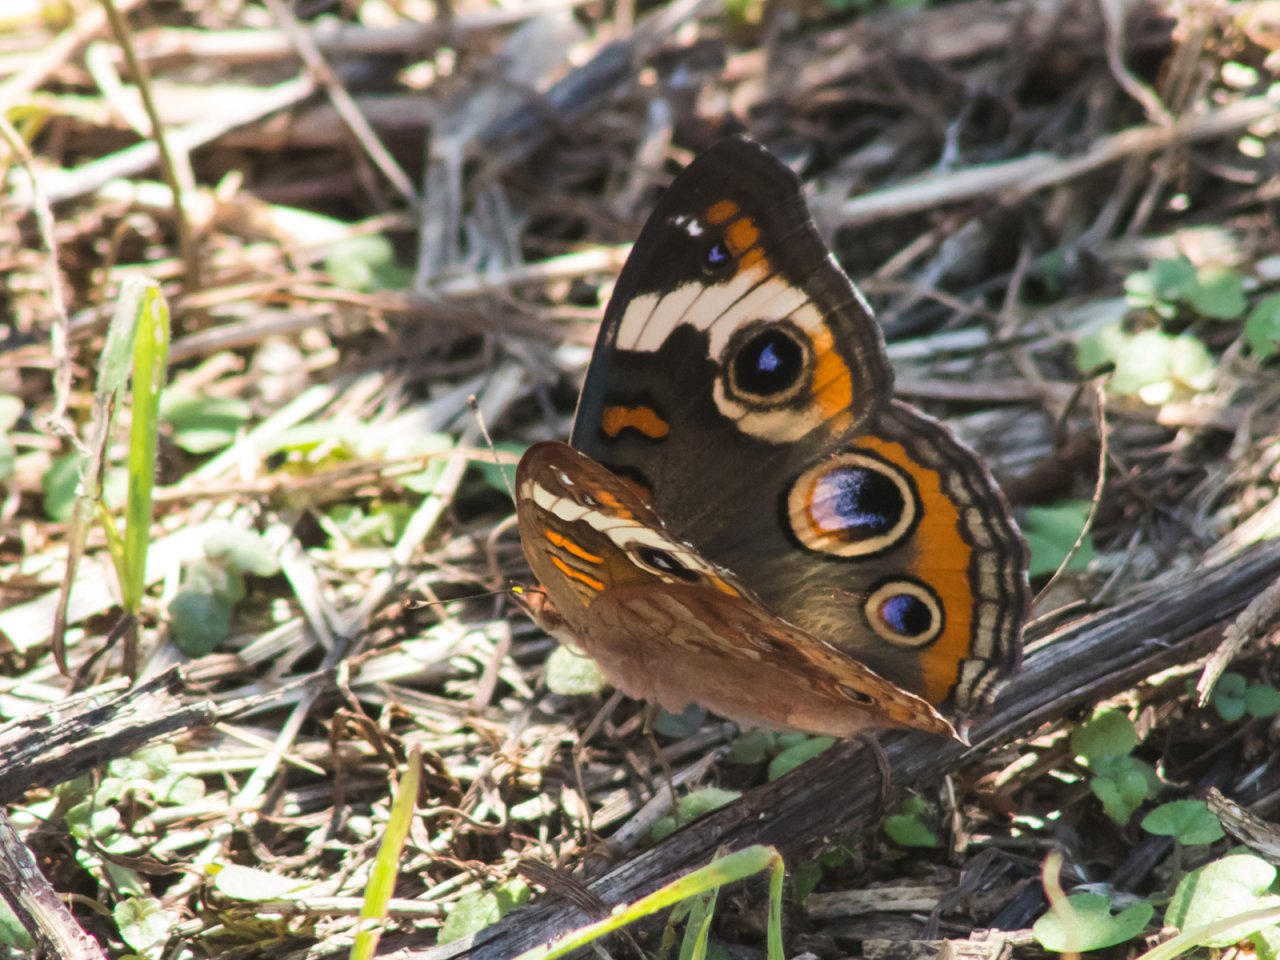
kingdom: Animalia
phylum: Arthropoda
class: Insecta
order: Lepidoptera
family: Nymphalidae
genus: Junonia
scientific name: Junonia coenia
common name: Common Buckeye
